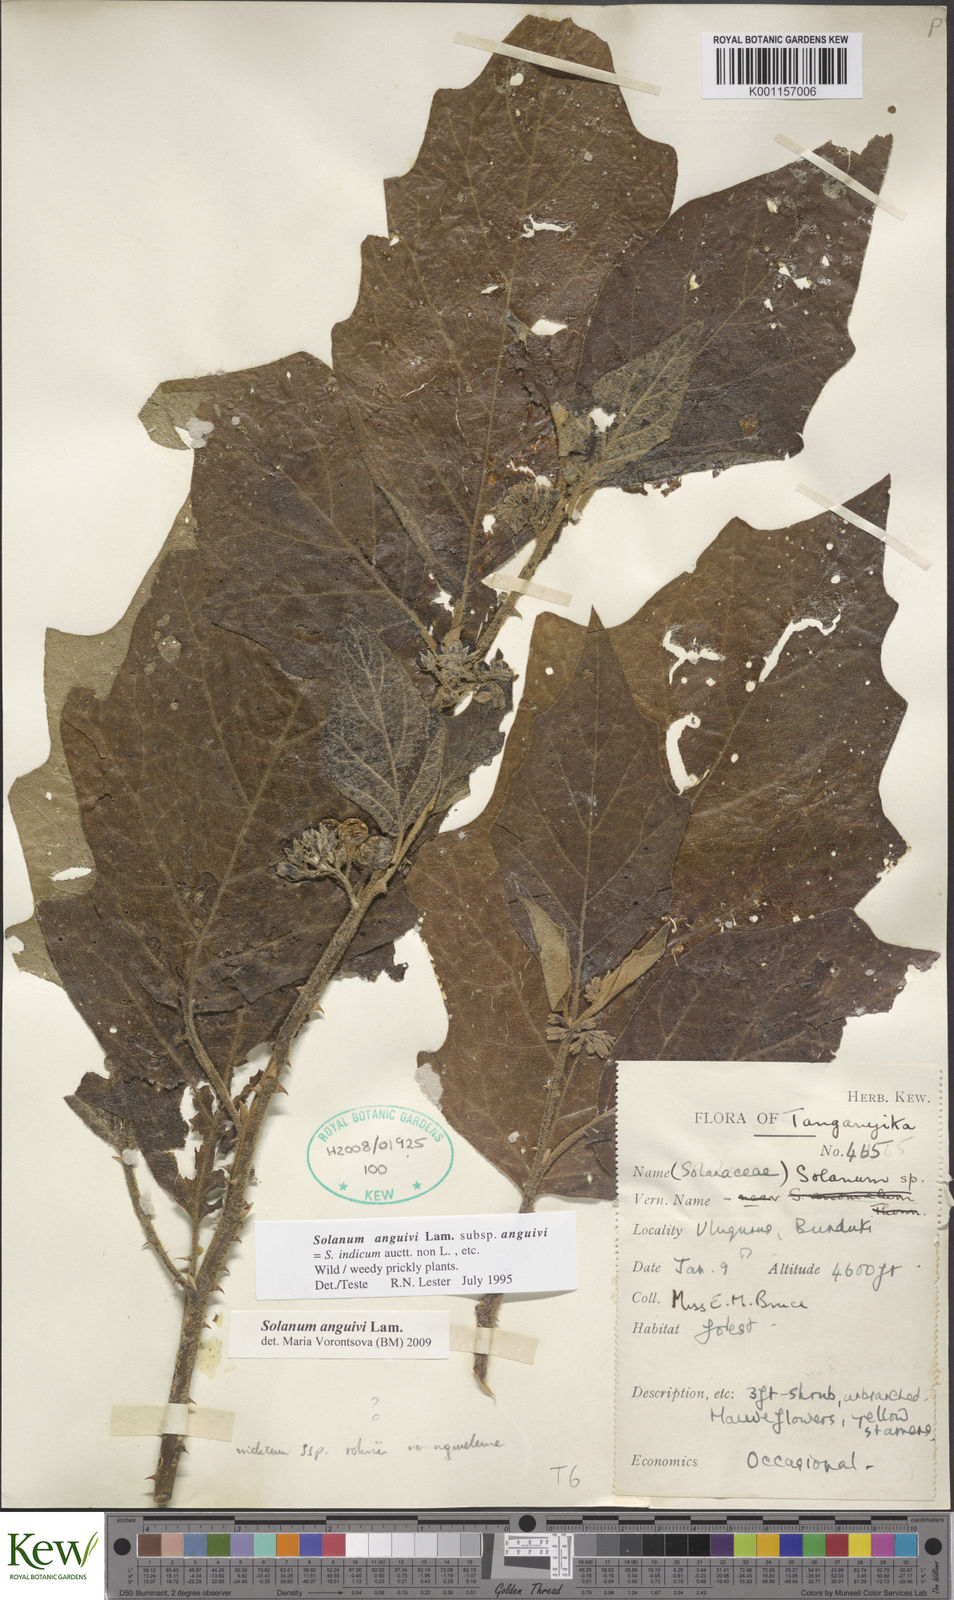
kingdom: Plantae
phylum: Tracheophyta
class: Magnoliopsida
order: Solanales
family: Solanaceae
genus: Solanum
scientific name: Solanum anguivi
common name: Forest bitterberry
